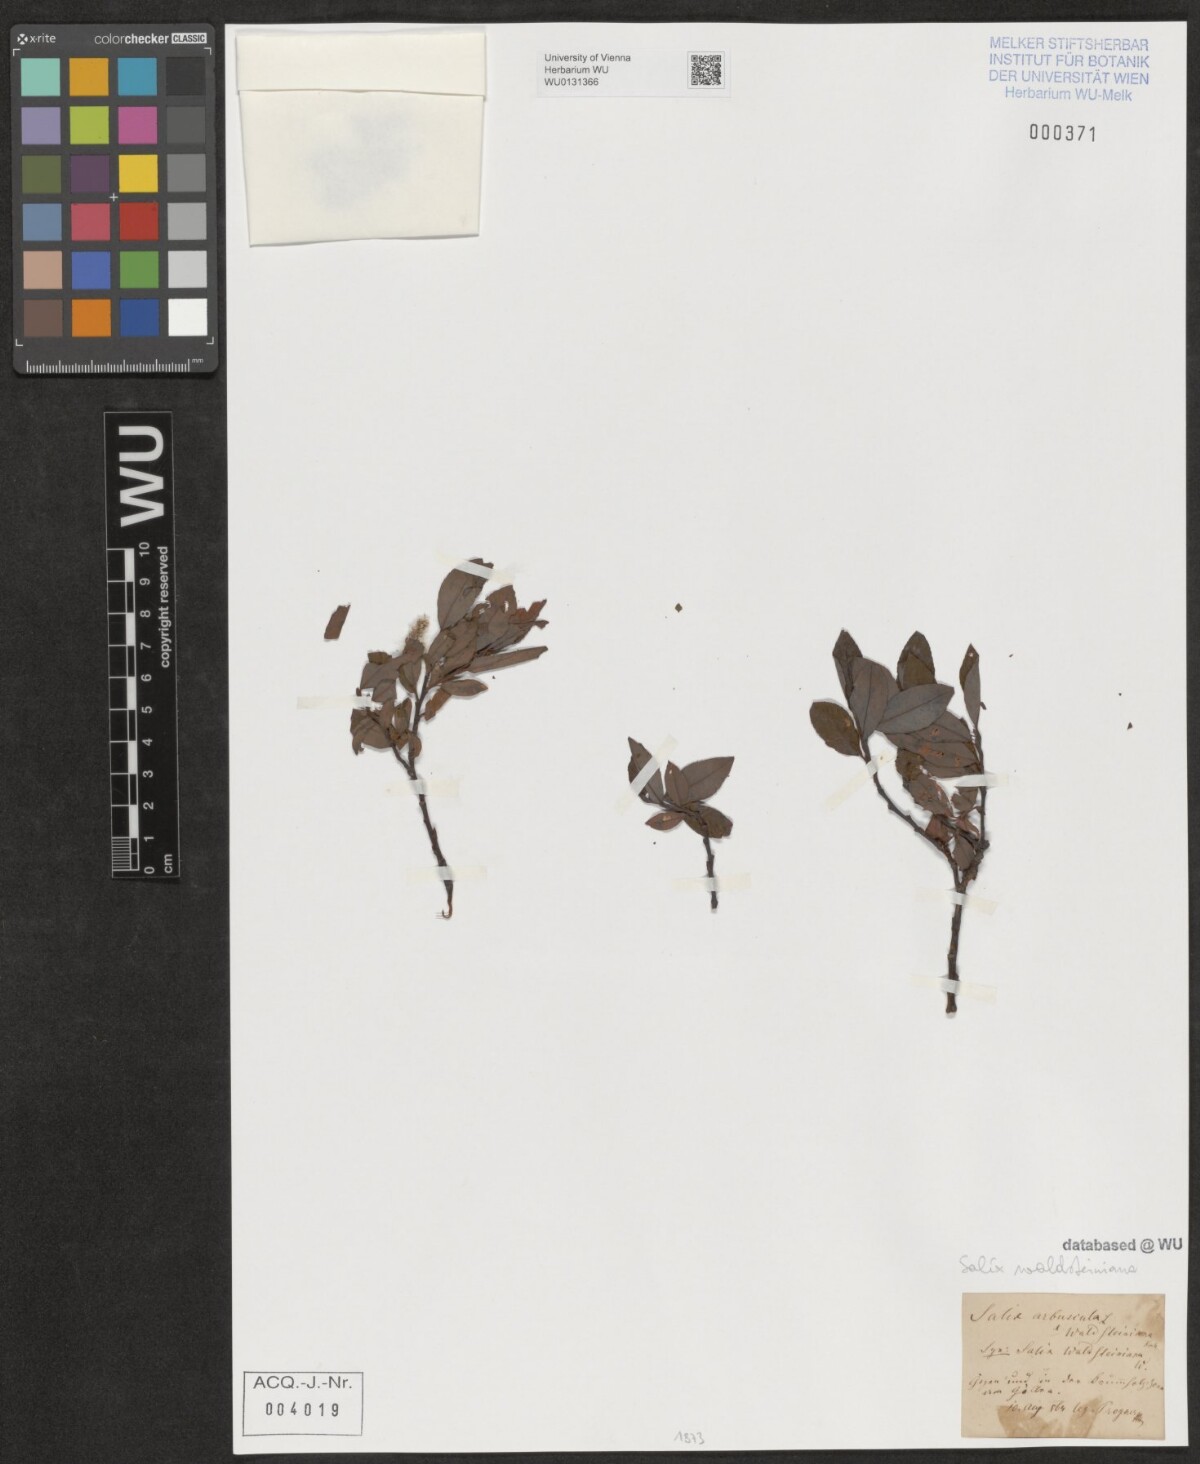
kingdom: Plantae
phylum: Tracheophyta
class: Magnoliopsida
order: Malpighiales
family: Salicaceae
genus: Salix
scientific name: Salix waldsteiniana
